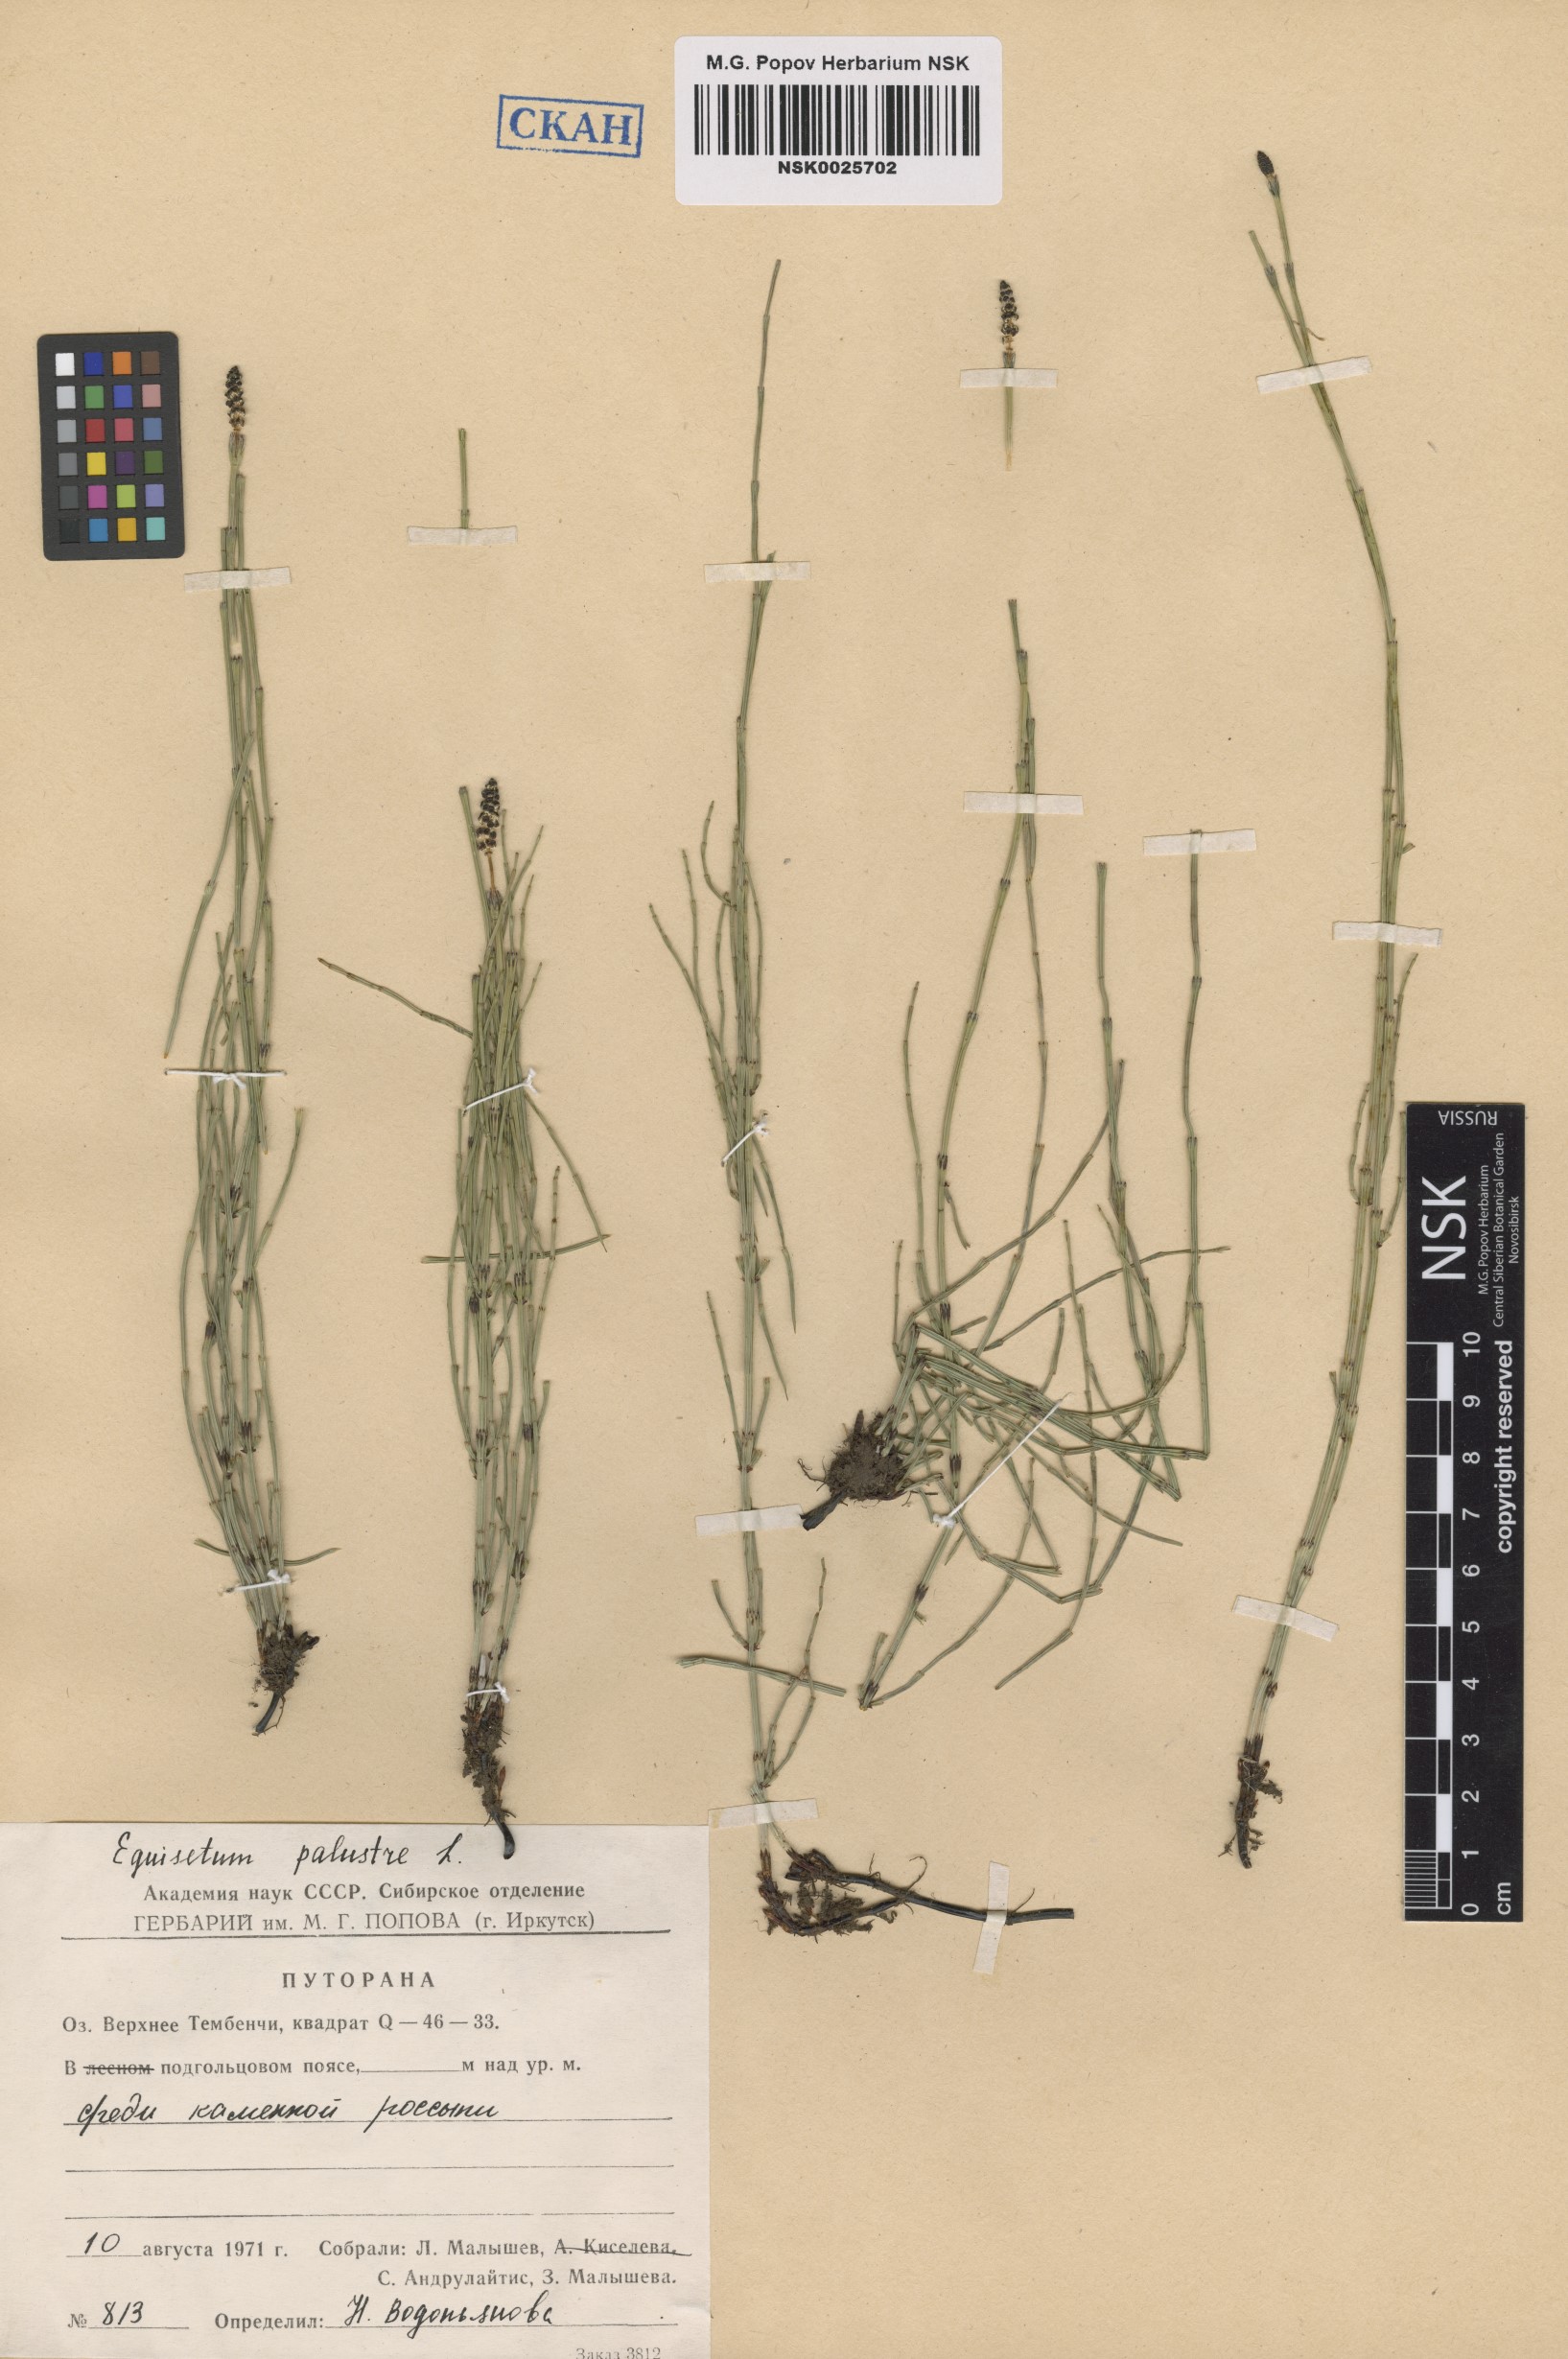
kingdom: Plantae
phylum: Tracheophyta
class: Polypodiopsida
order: Equisetales
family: Equisetaceae
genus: Equisetum
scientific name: Equisetum palustre
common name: Marsh horsetail
